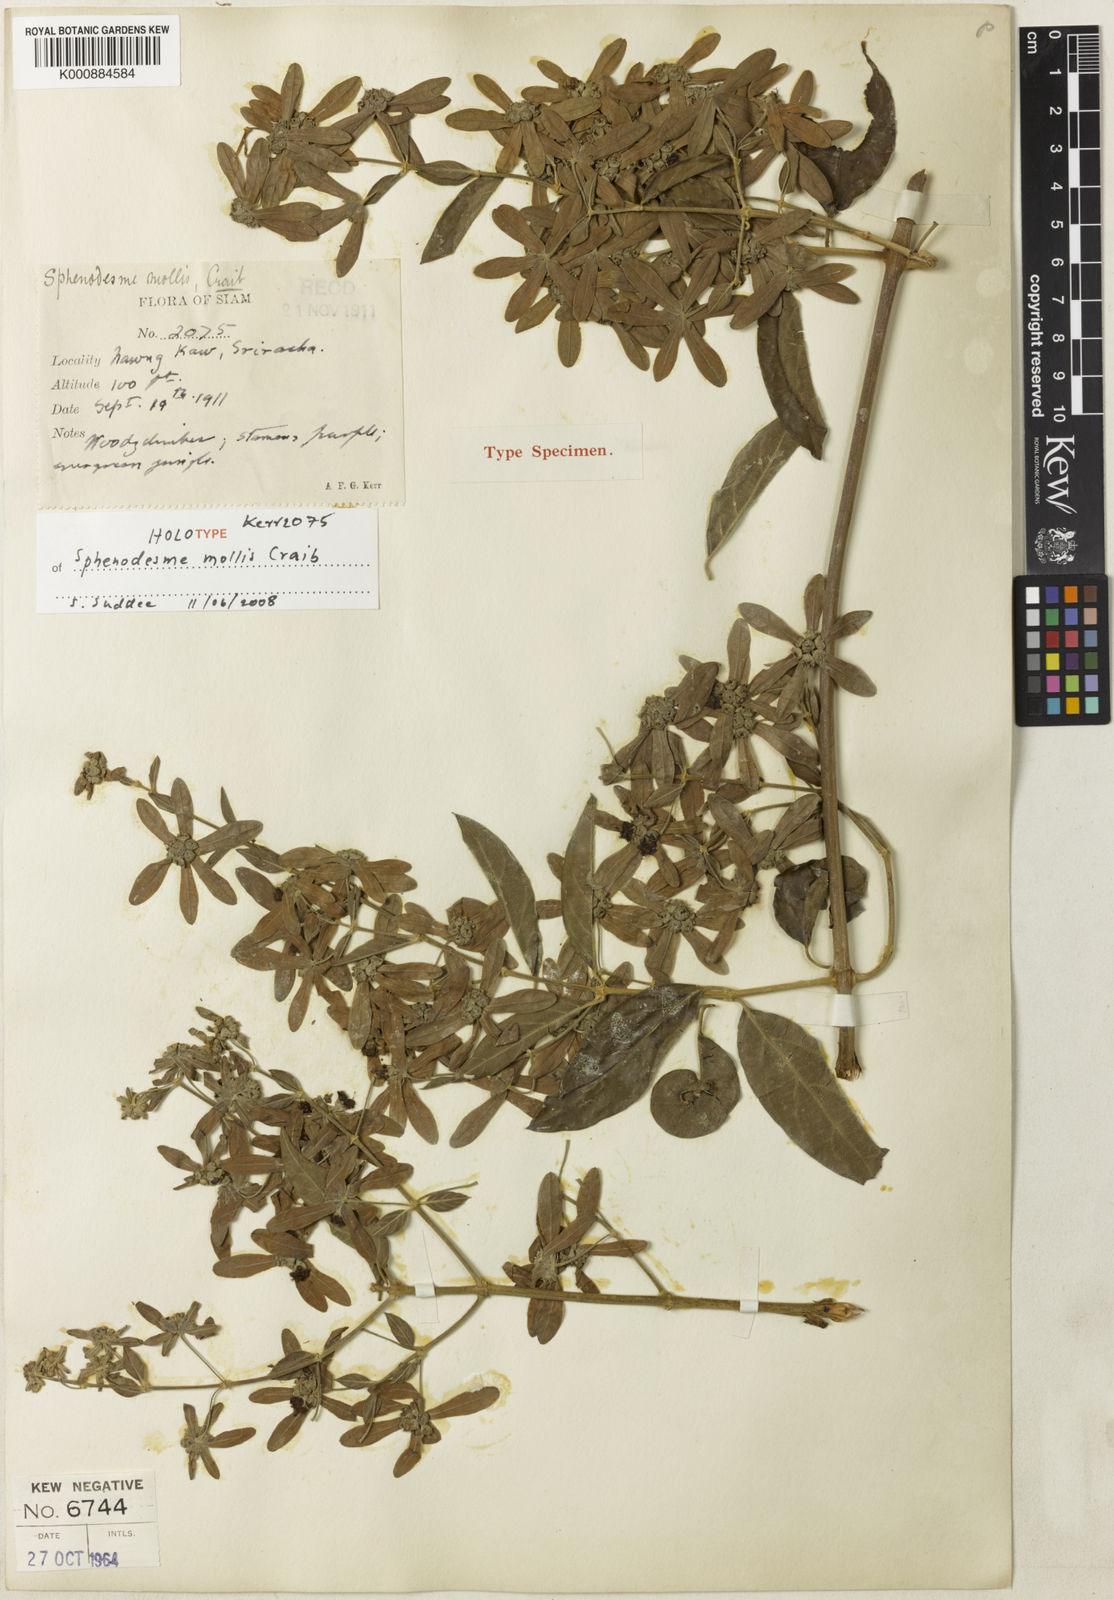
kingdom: Plantae
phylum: Tracheophyta
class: Magnoliopsida
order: Lamiales
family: Lamiaceae
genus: Sphenodesme
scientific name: Sphenodesme mollis
